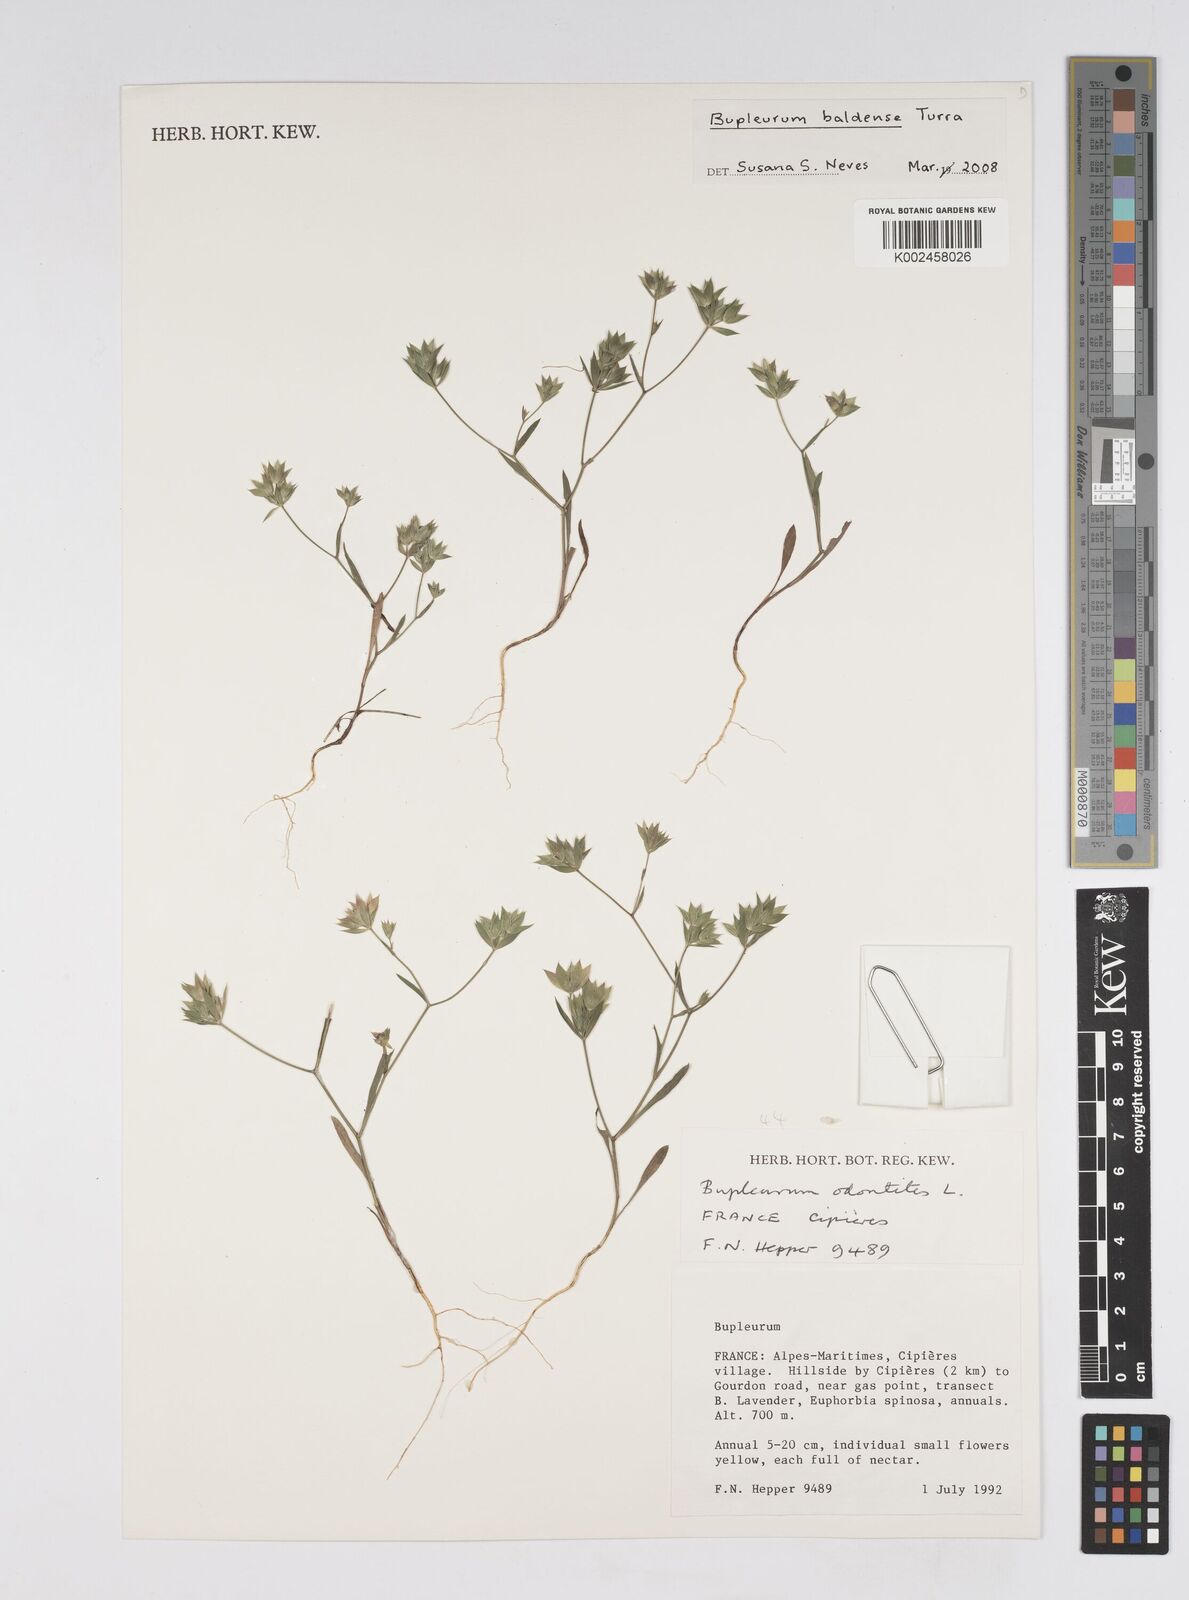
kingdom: Plantae
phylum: Tracheophyta
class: Magnoliopsida
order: Apiales
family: Apiaceae
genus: Bupleurum
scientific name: Bupleurum baldense
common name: Small hare's-ear
